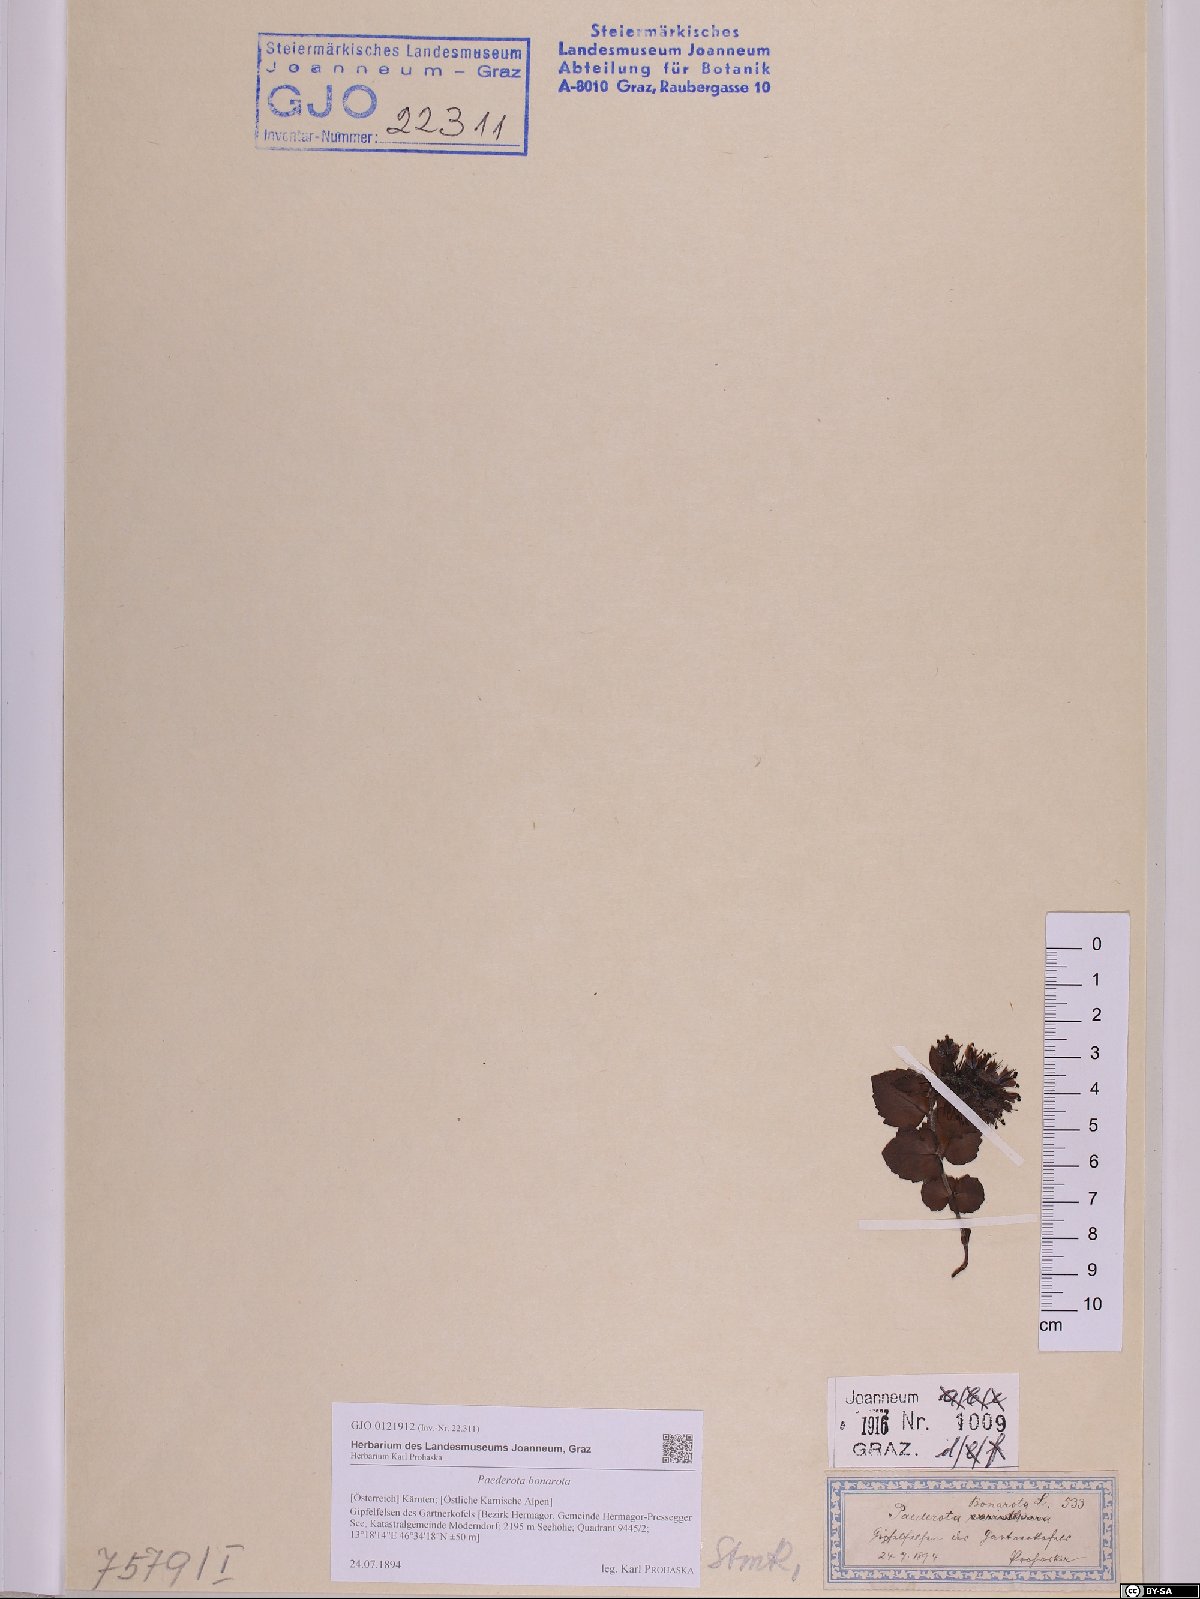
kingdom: Plantae
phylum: Tracheophyta
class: Magnoliopsida
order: Lamiales
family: Plantaginaceae
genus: Paederota
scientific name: Paederota bonarota
